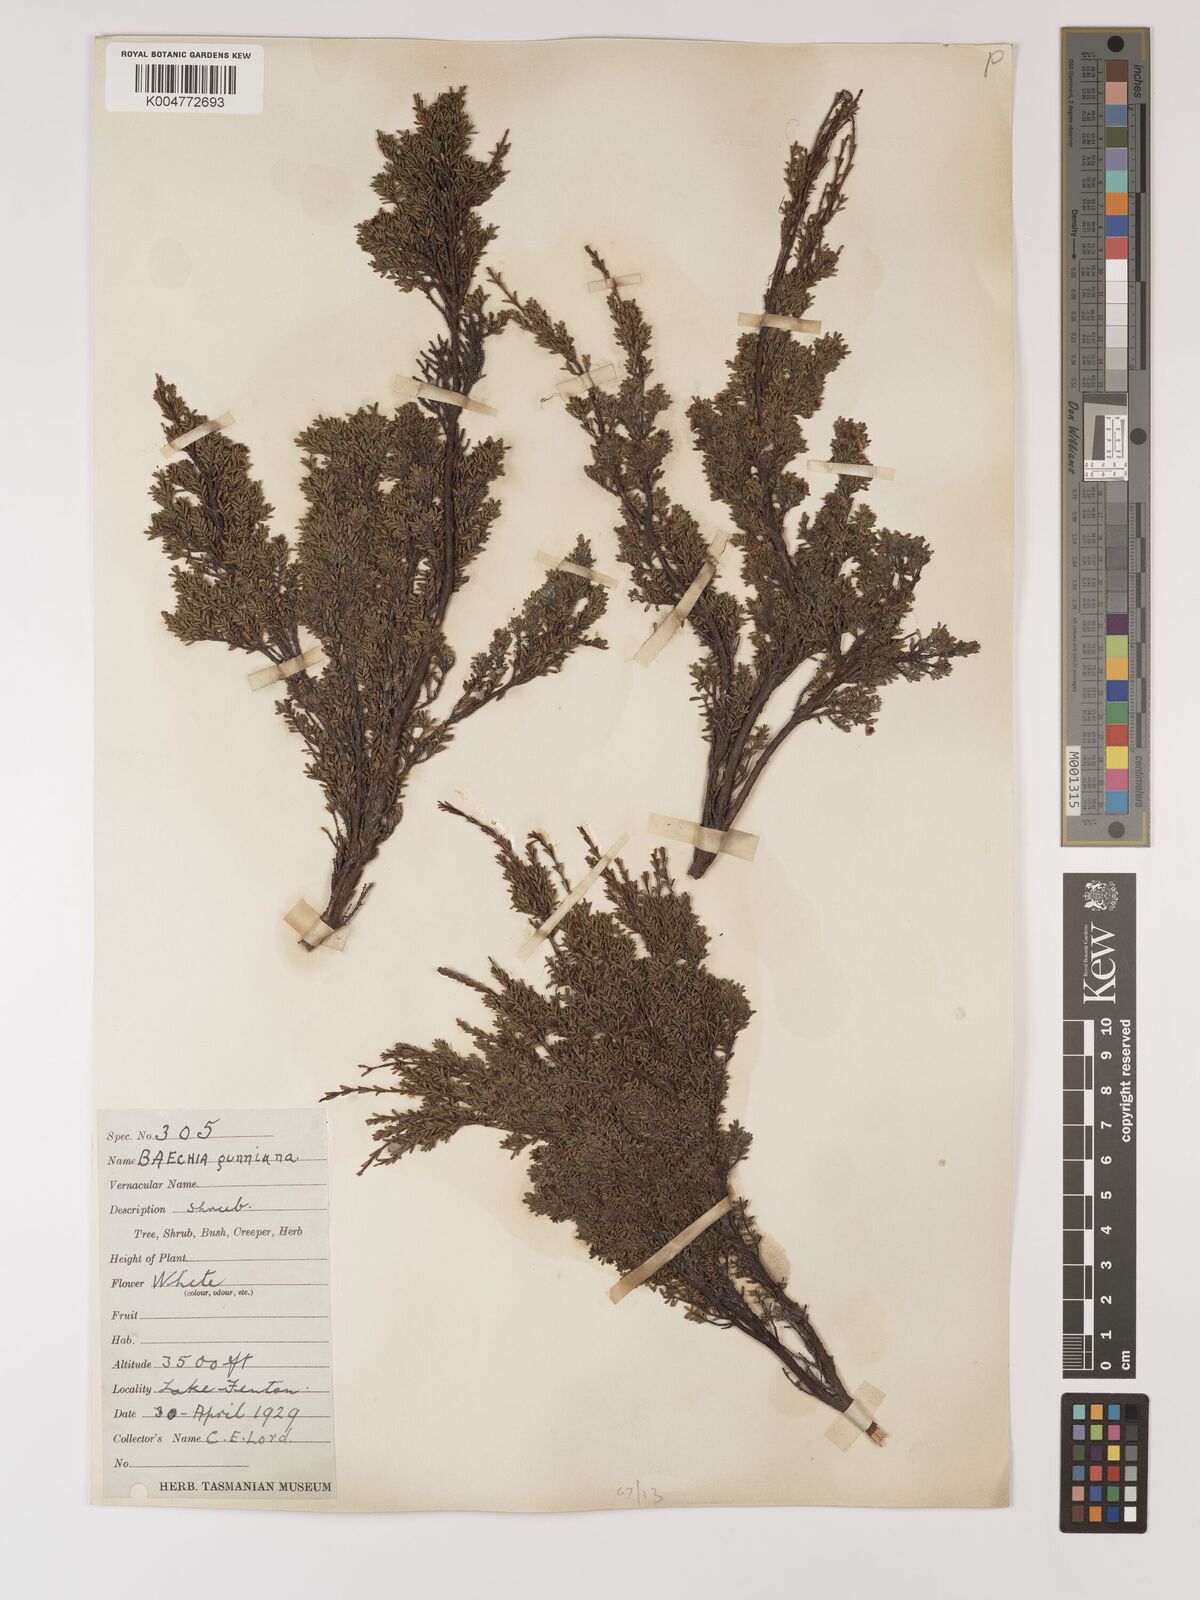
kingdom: Plantae
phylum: Tracheophyta
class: Magnoliopsida
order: Myrtales
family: Myrtaceae
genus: Baeckea
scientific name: Baeckea gunniana
